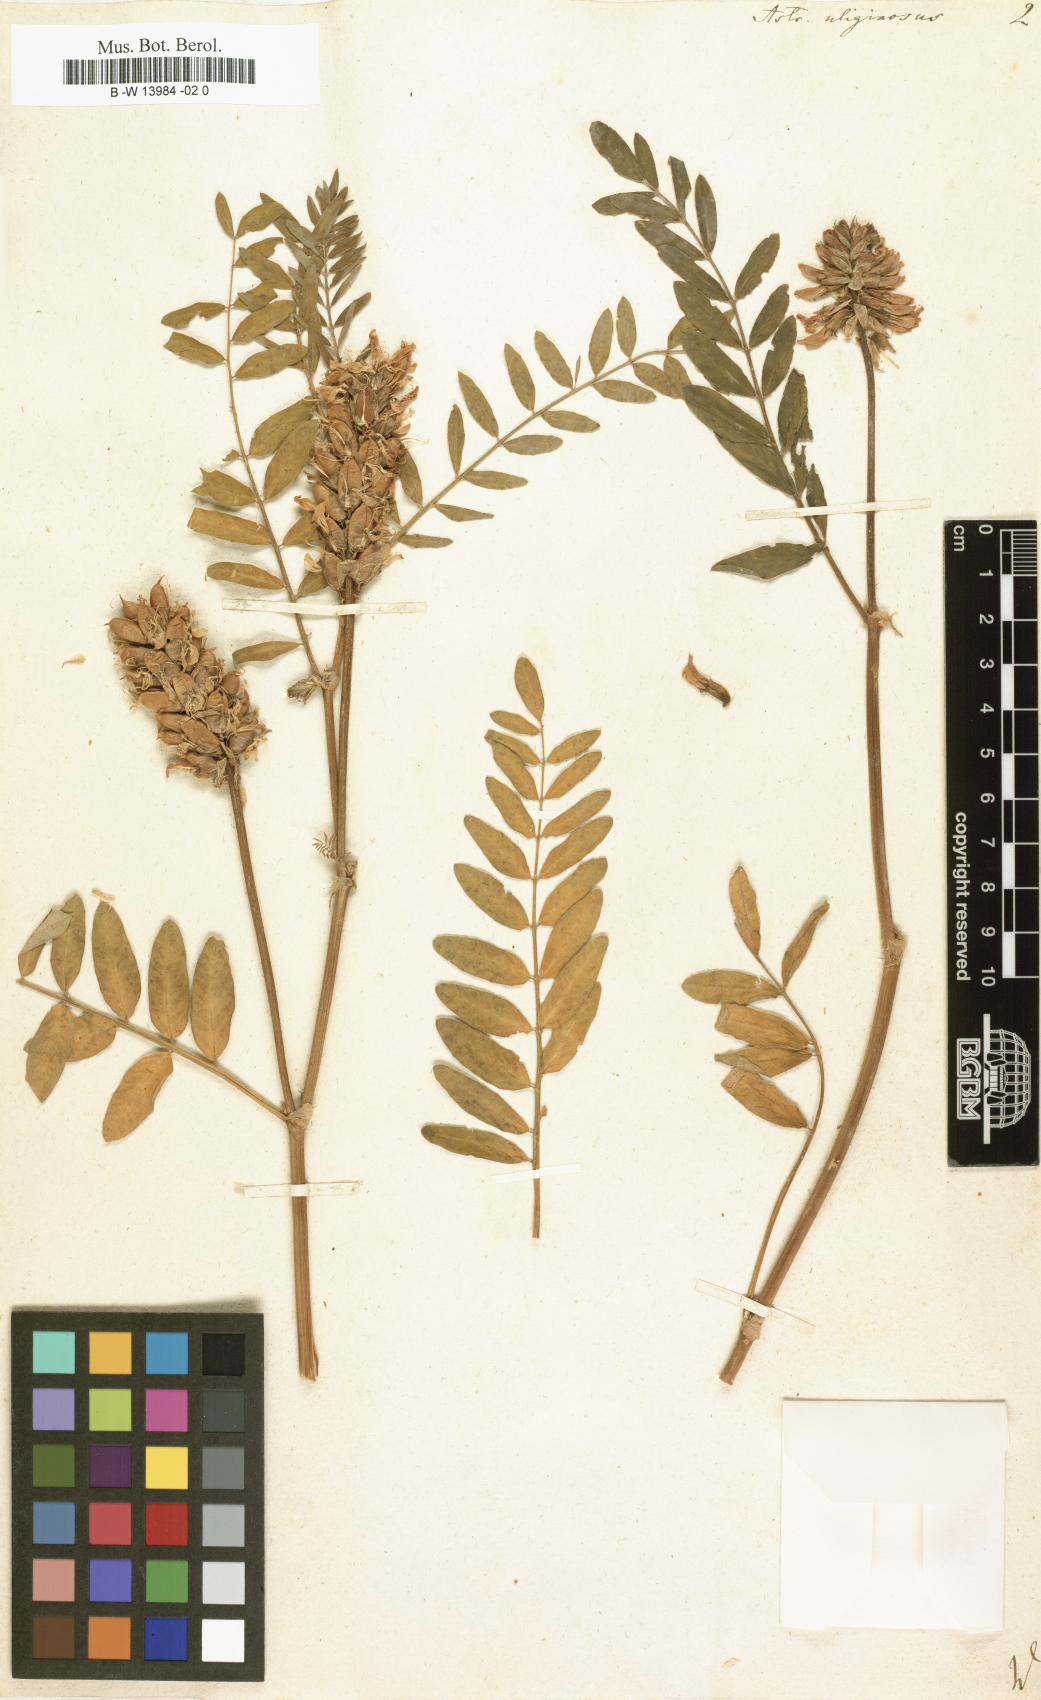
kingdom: Plantae
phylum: Tracheophyta
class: Magnoliopsida
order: Fabales
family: Fabaceae
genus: Astragalus
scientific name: Astragalus uliginosus
